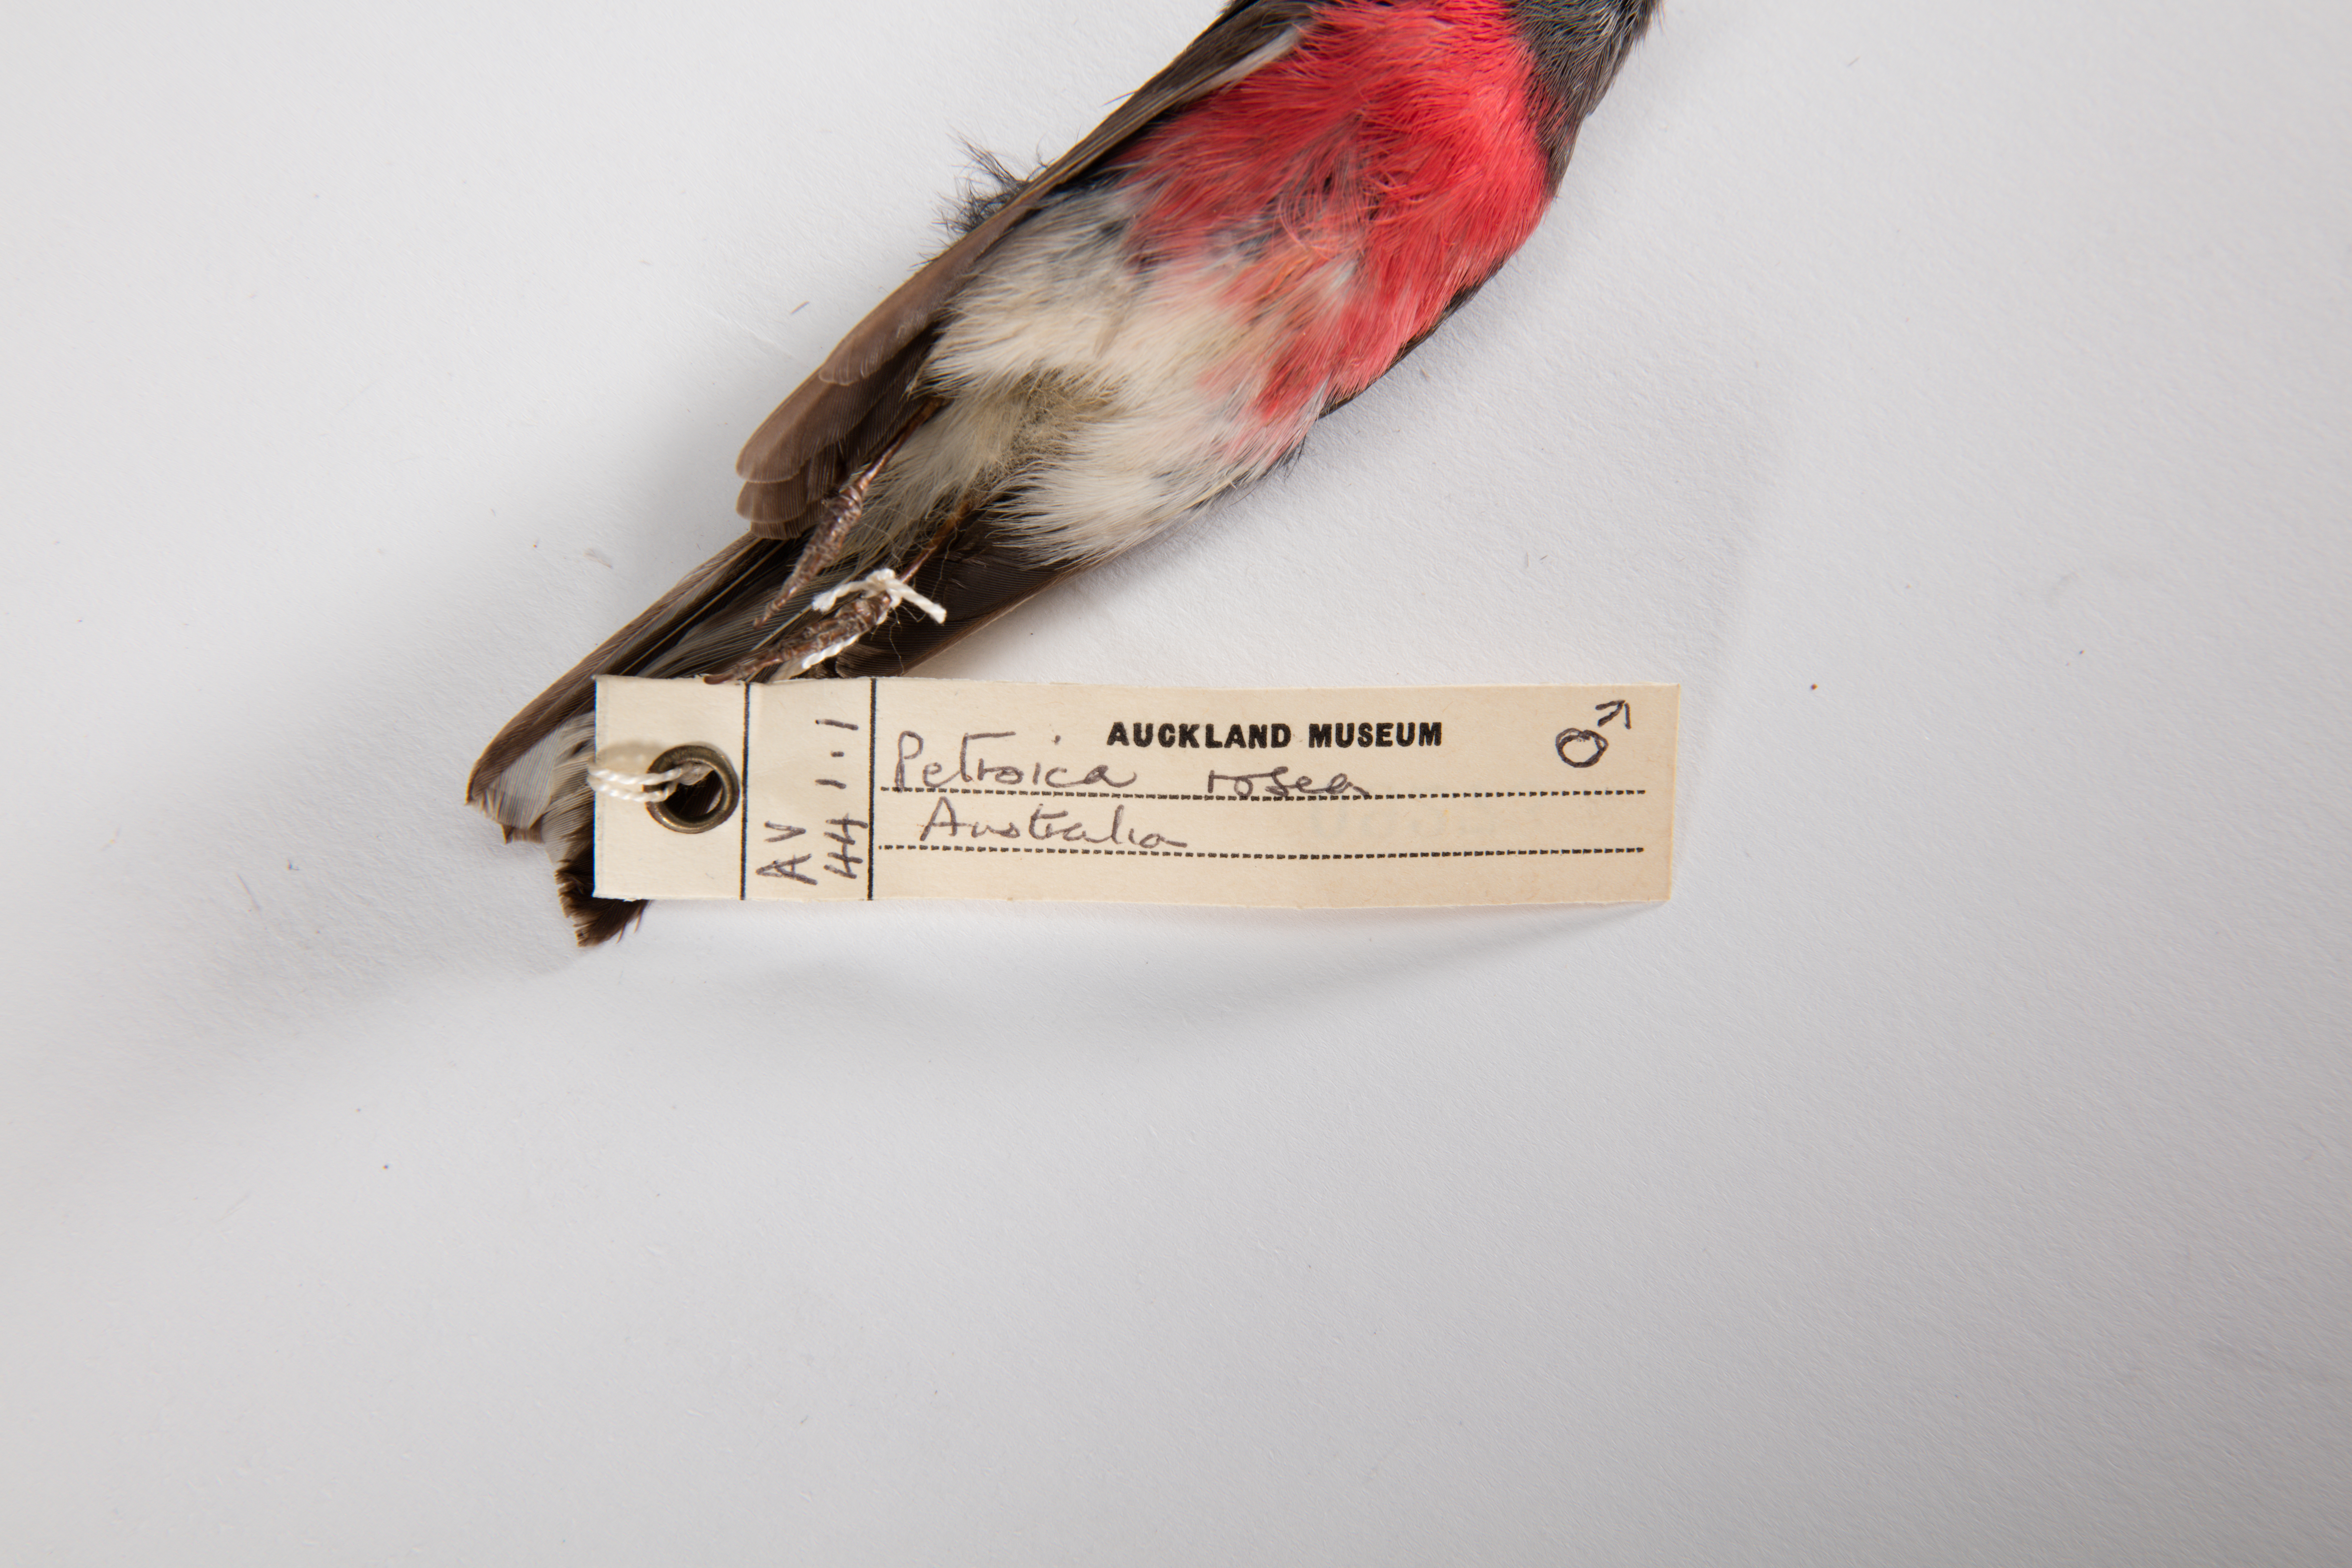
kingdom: Animalia
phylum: Chordata
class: Aves
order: Passeriformes
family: Petroicidae
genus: Petroica
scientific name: Petroica rosea
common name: Rose robin
